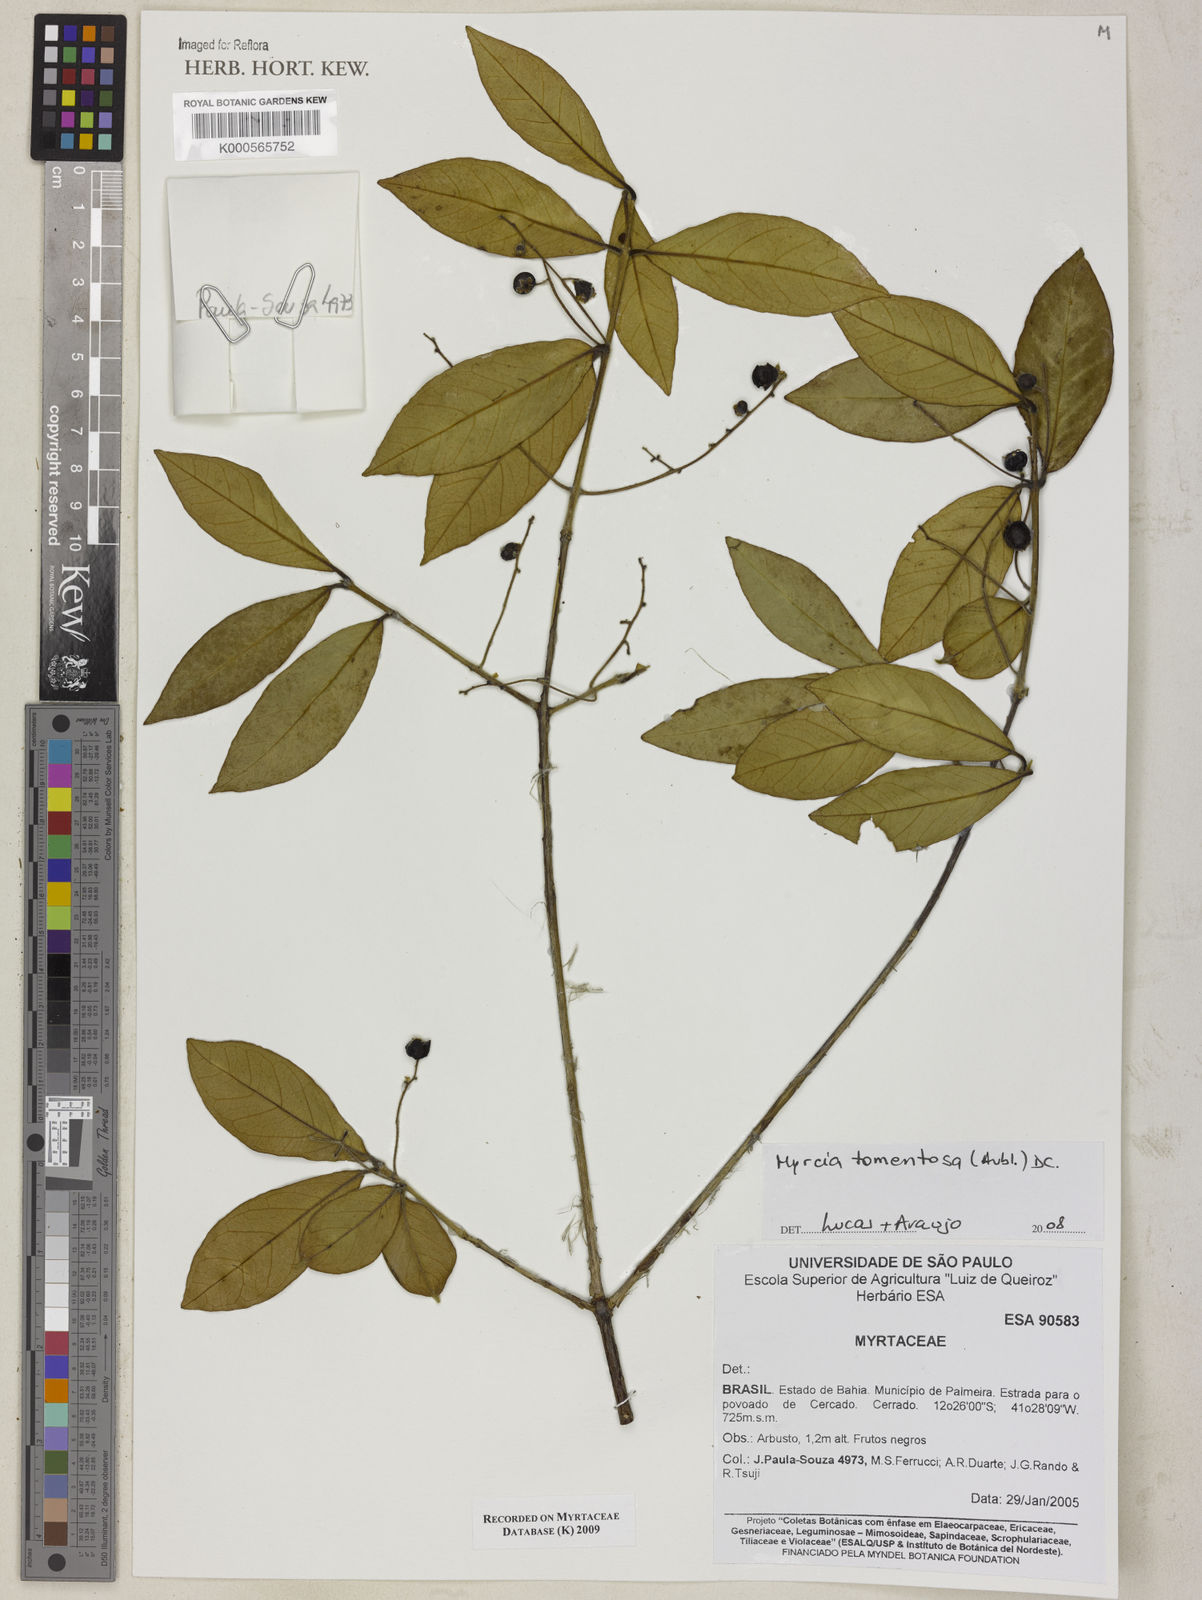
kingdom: Plantae
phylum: Tracheophyta
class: Magnoliopsida
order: Myrtales
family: Myrtaceae
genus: Myrcia
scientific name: Myrcia tomentosa
